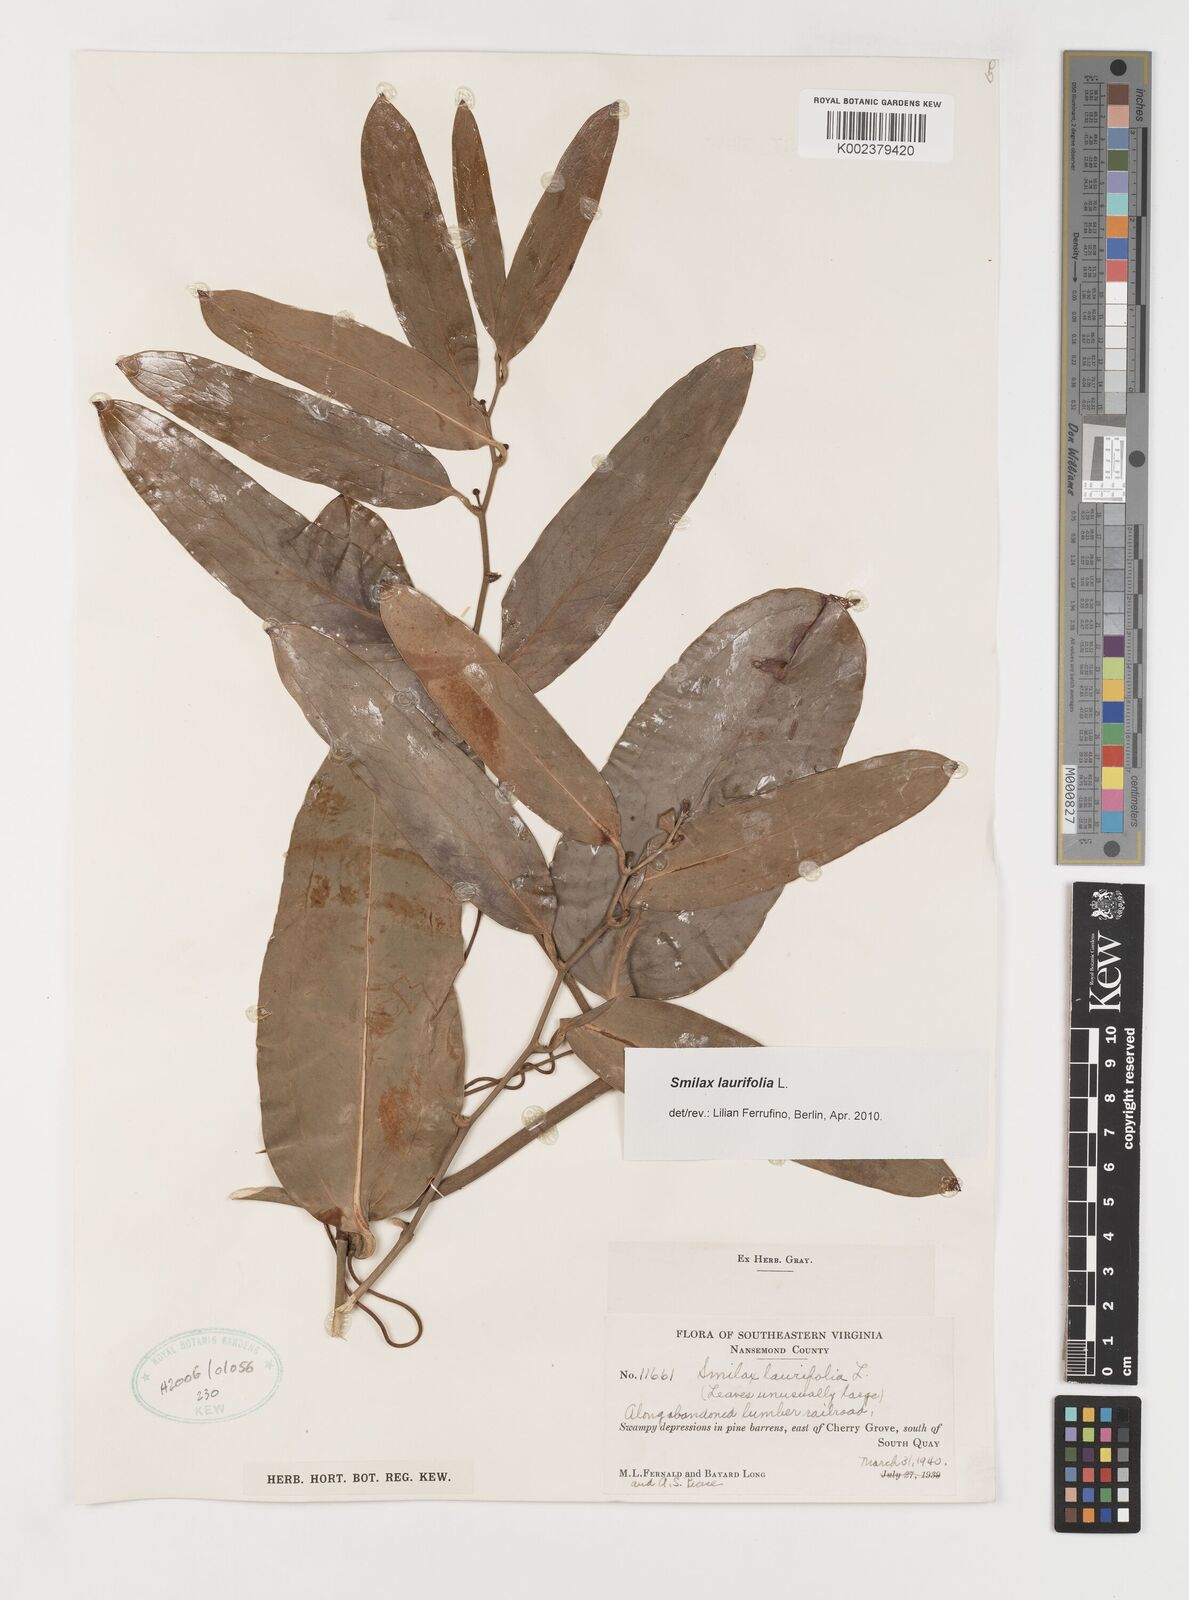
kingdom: Plantae
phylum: Tracheophyta
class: Liliopsida
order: Liliales
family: Smilacaceae
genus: Smilax
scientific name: Smilax laurifolia
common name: Bamboovine
